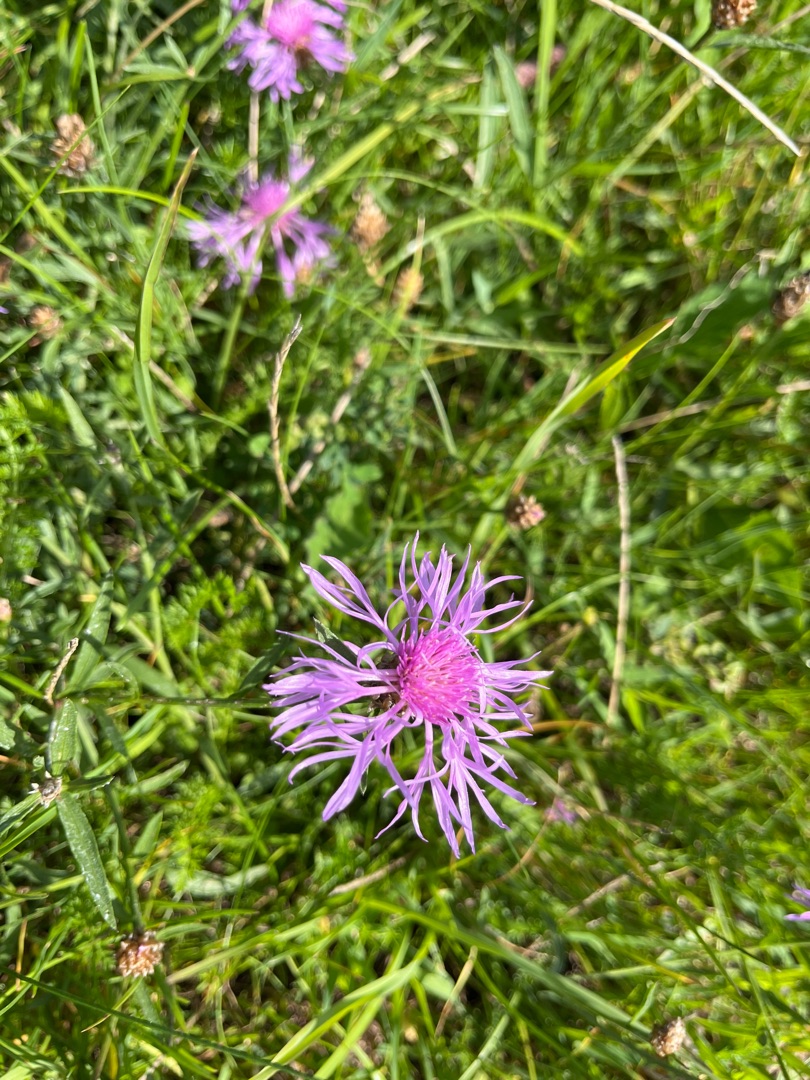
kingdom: Plantae
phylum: Tracheophyta
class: Magnoliopsida
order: Asterales
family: Asteraceae
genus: Centaurea
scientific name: Centaurea jacea
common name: Almindelig knopurt
